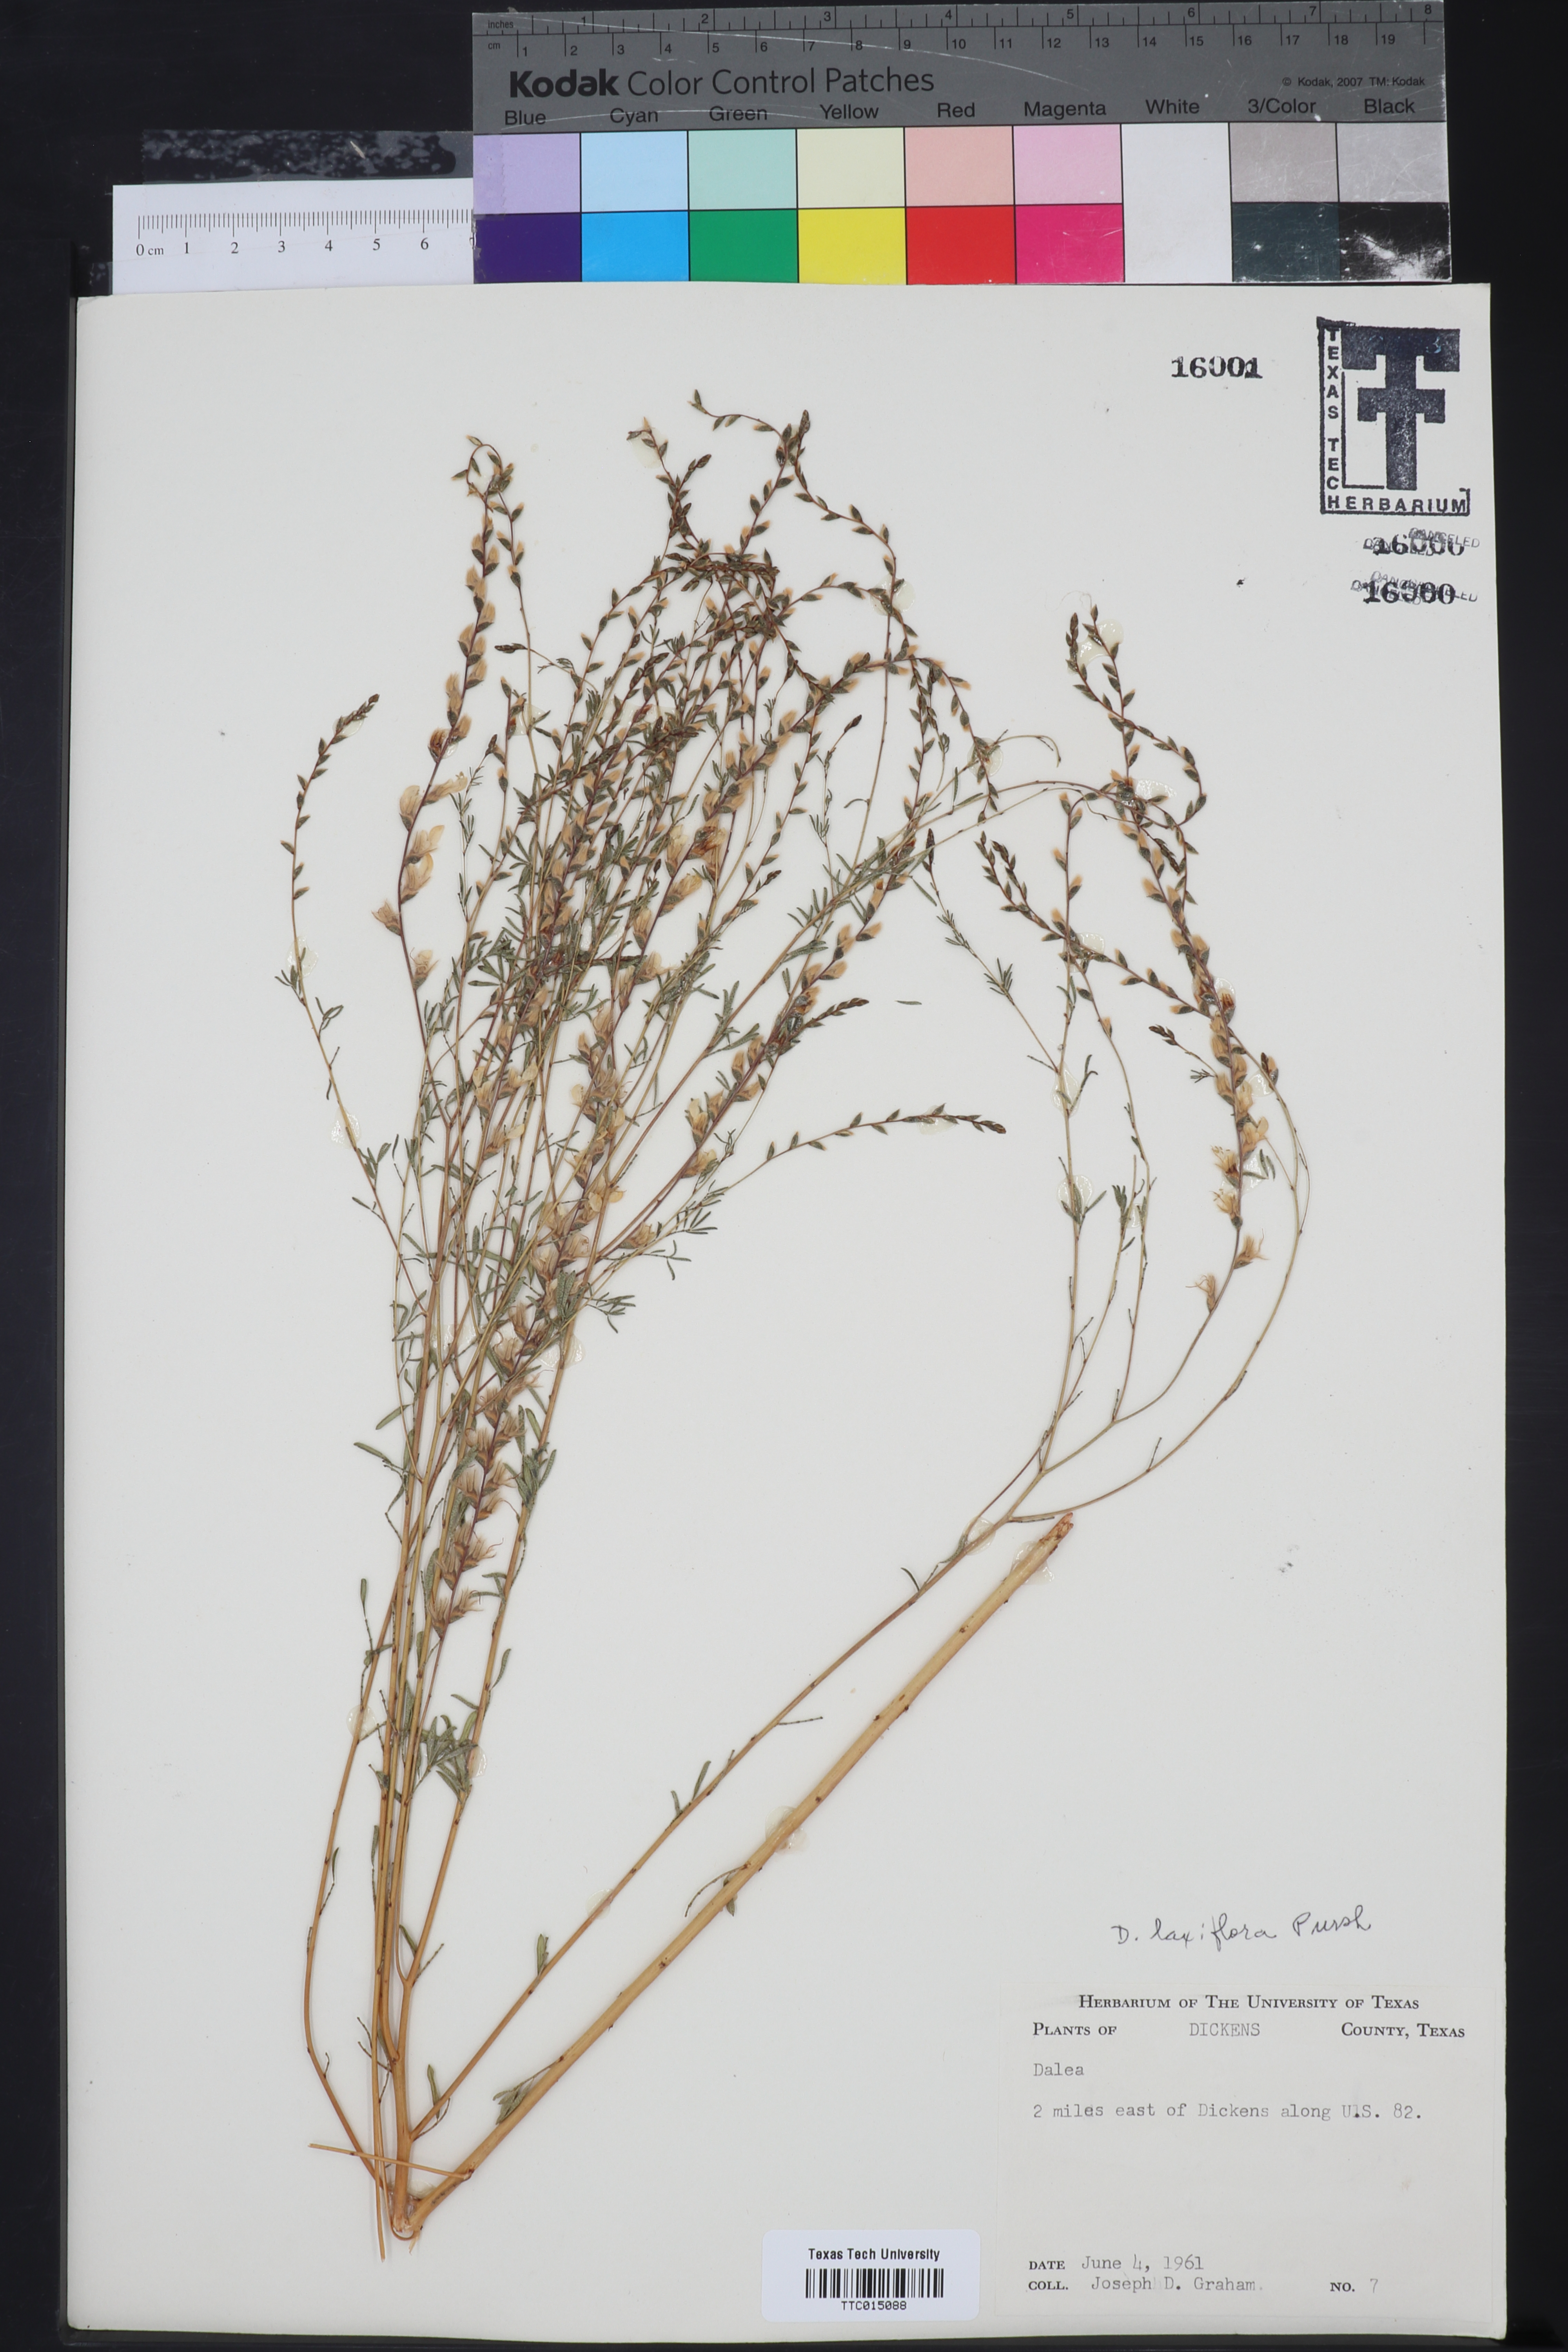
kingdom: Plantae
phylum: Tracheophyta
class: Magnoliopsida
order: Fabales
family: Fabaceae
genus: Dalea
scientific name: Dalea hegewischiana
